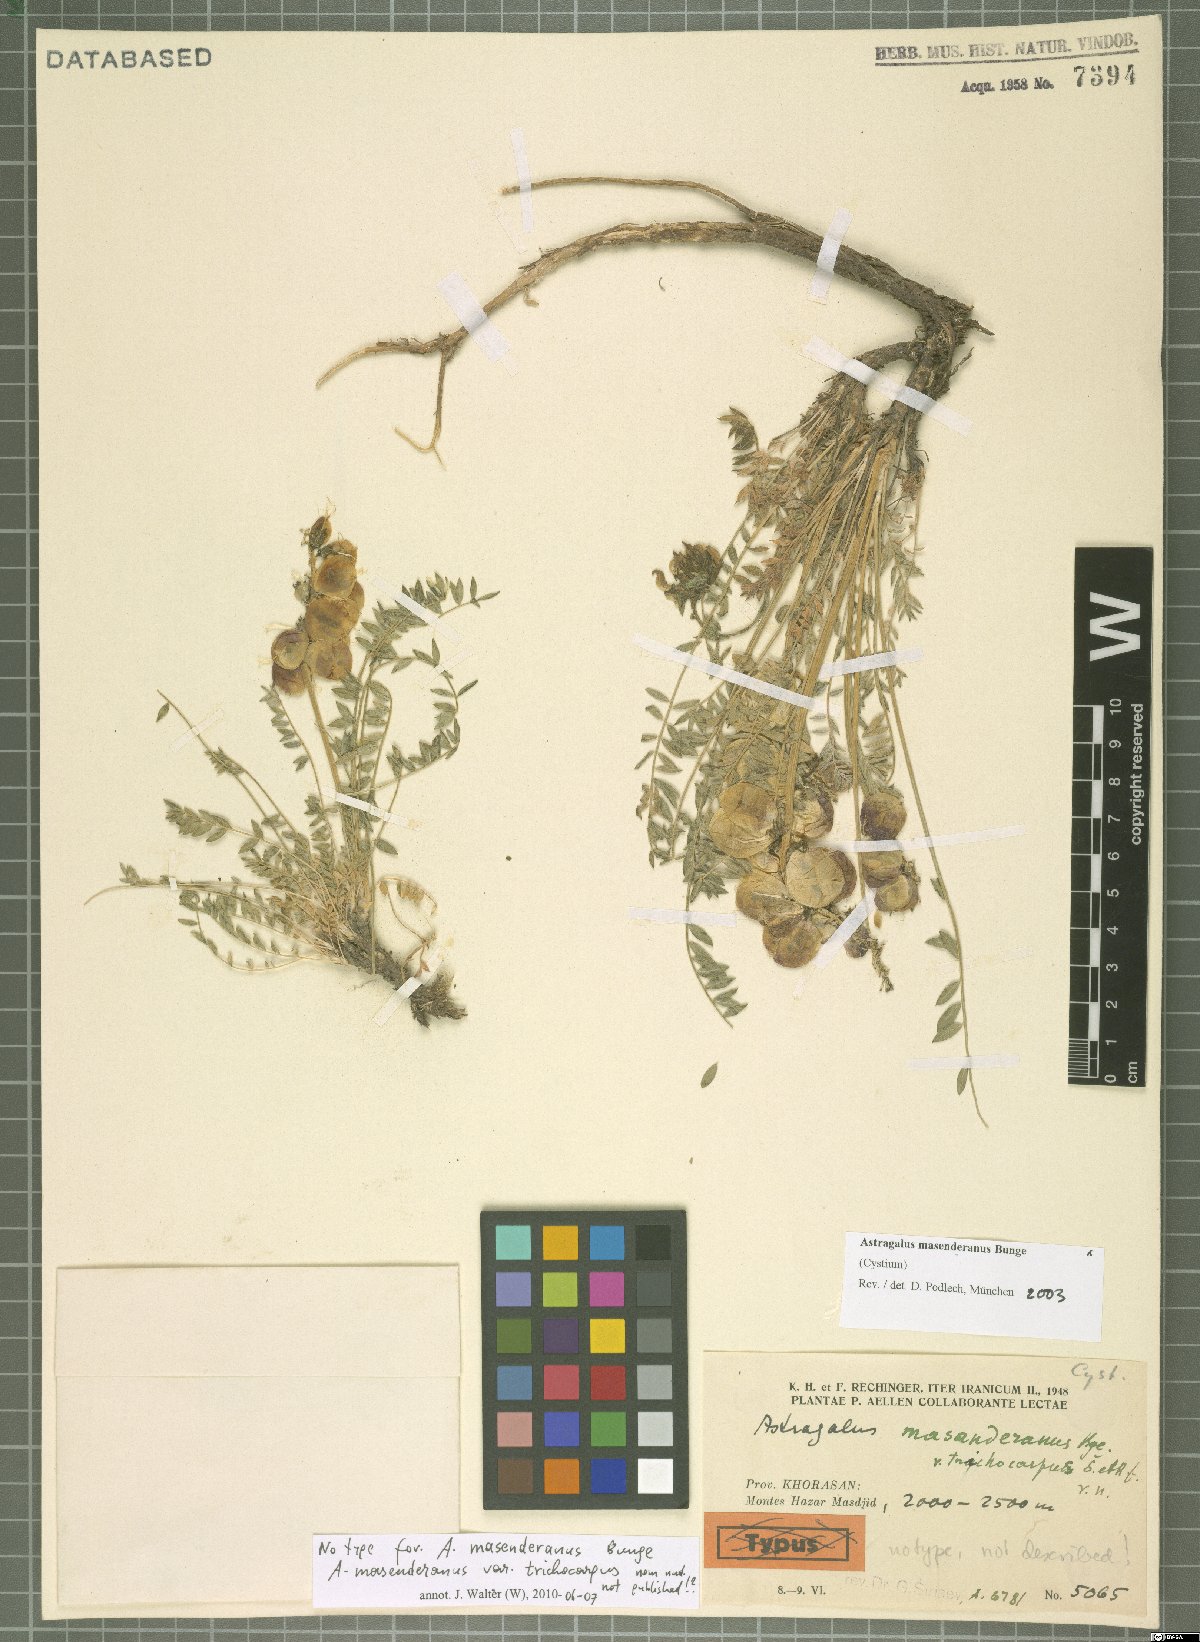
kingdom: Plantae
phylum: Tracheophyta
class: Magnoliopsida
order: Fabales
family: Fabaceae
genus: Astragalus
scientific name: Astragalus masenderanus
